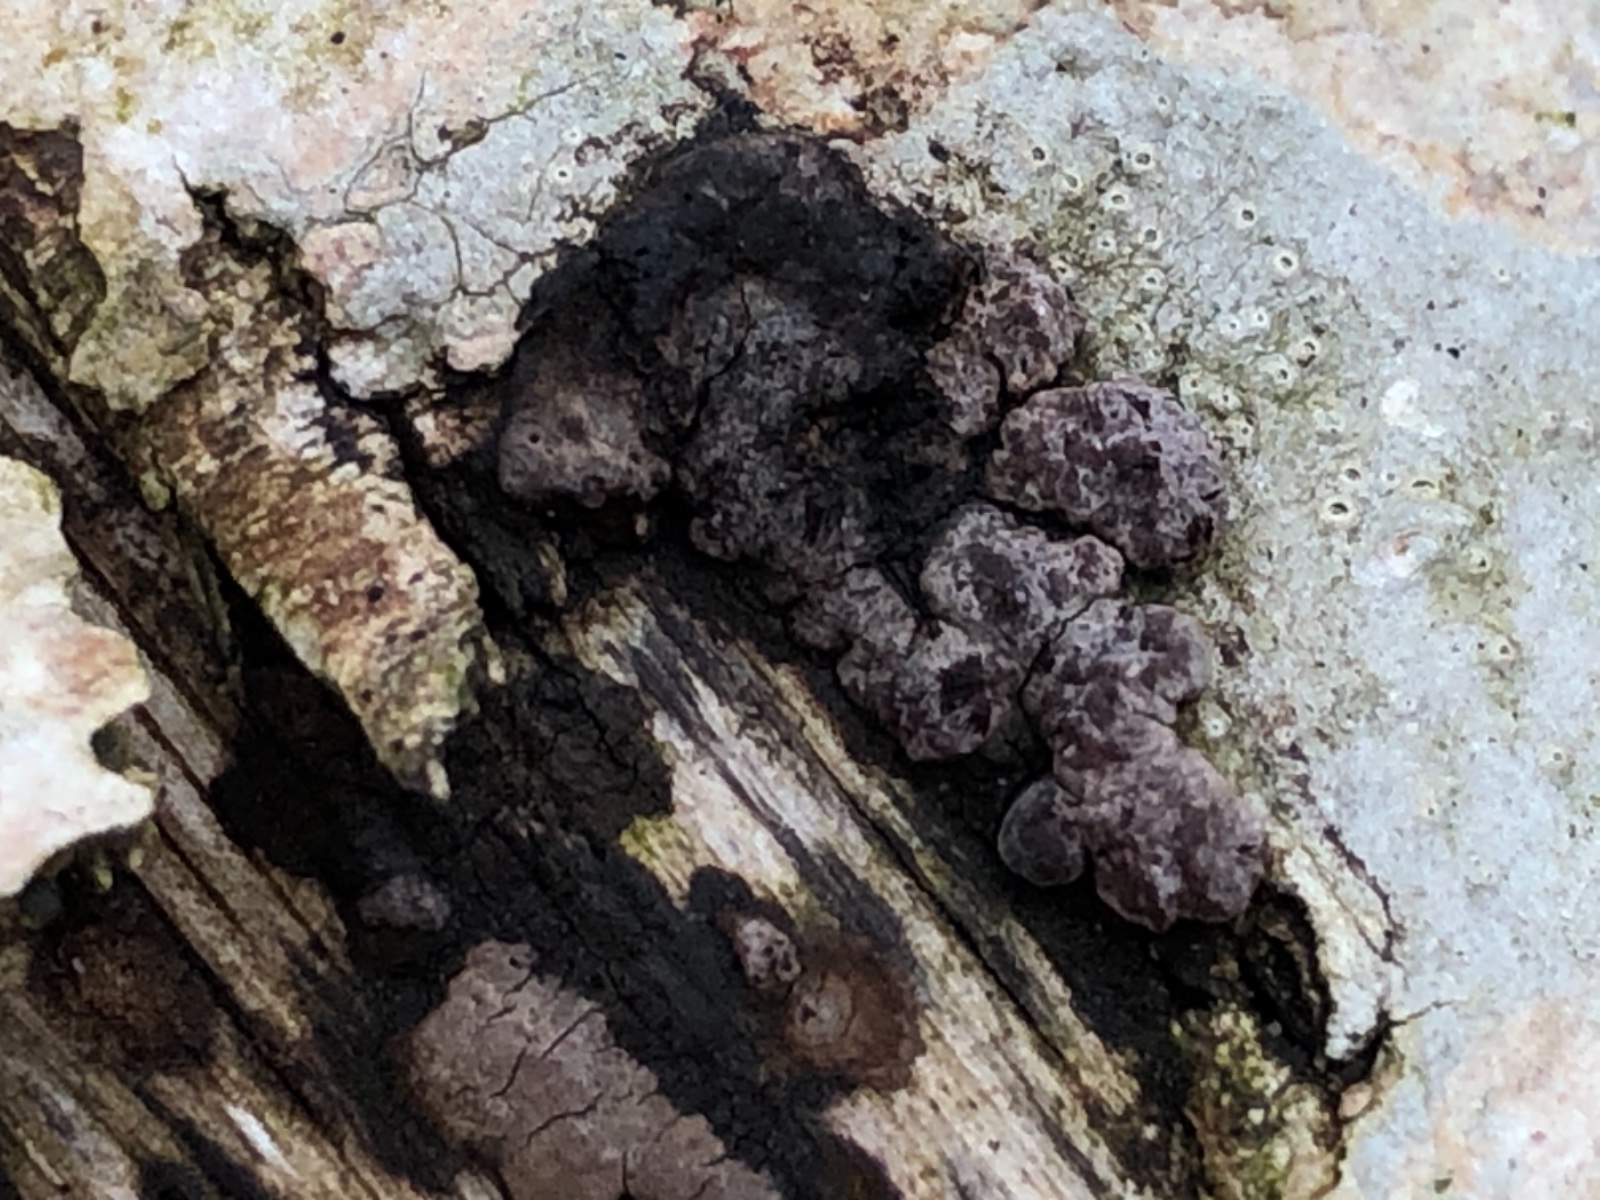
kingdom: Fungi
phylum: Ascomycota
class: Sordariomycetes
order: Xylariales
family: Hypoxylaceae
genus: Hypoxylon
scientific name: Hypoxylon fuscum
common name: kegleformet kulbær
